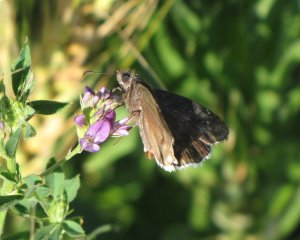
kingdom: Animalia
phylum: Arthropoda
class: Insecta
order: Lepidoptera
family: Hesperiidae
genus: Erynnis
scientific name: Erynnis funeralis
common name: Funereal Duskywing
